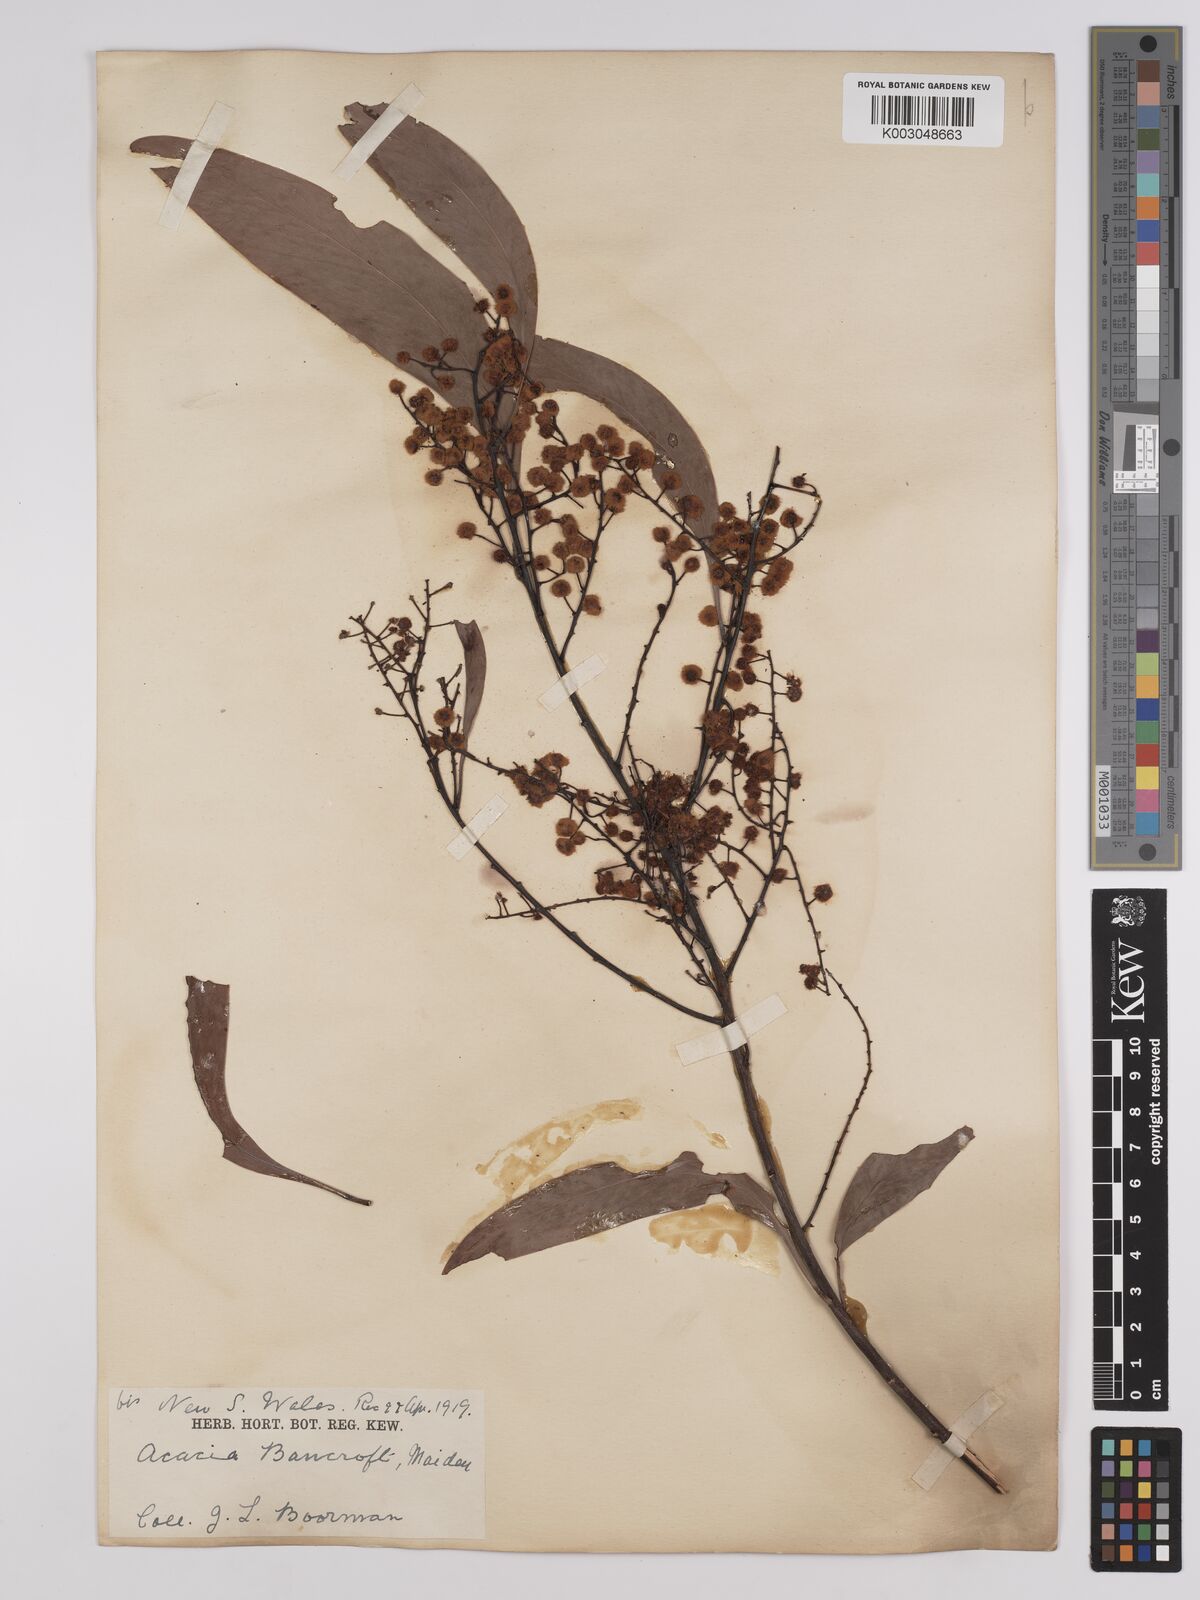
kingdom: Plantae
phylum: Tracheophyta
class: Magnoliopsida
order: Fabales
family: Fabaceae
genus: Acacia
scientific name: Acacia
